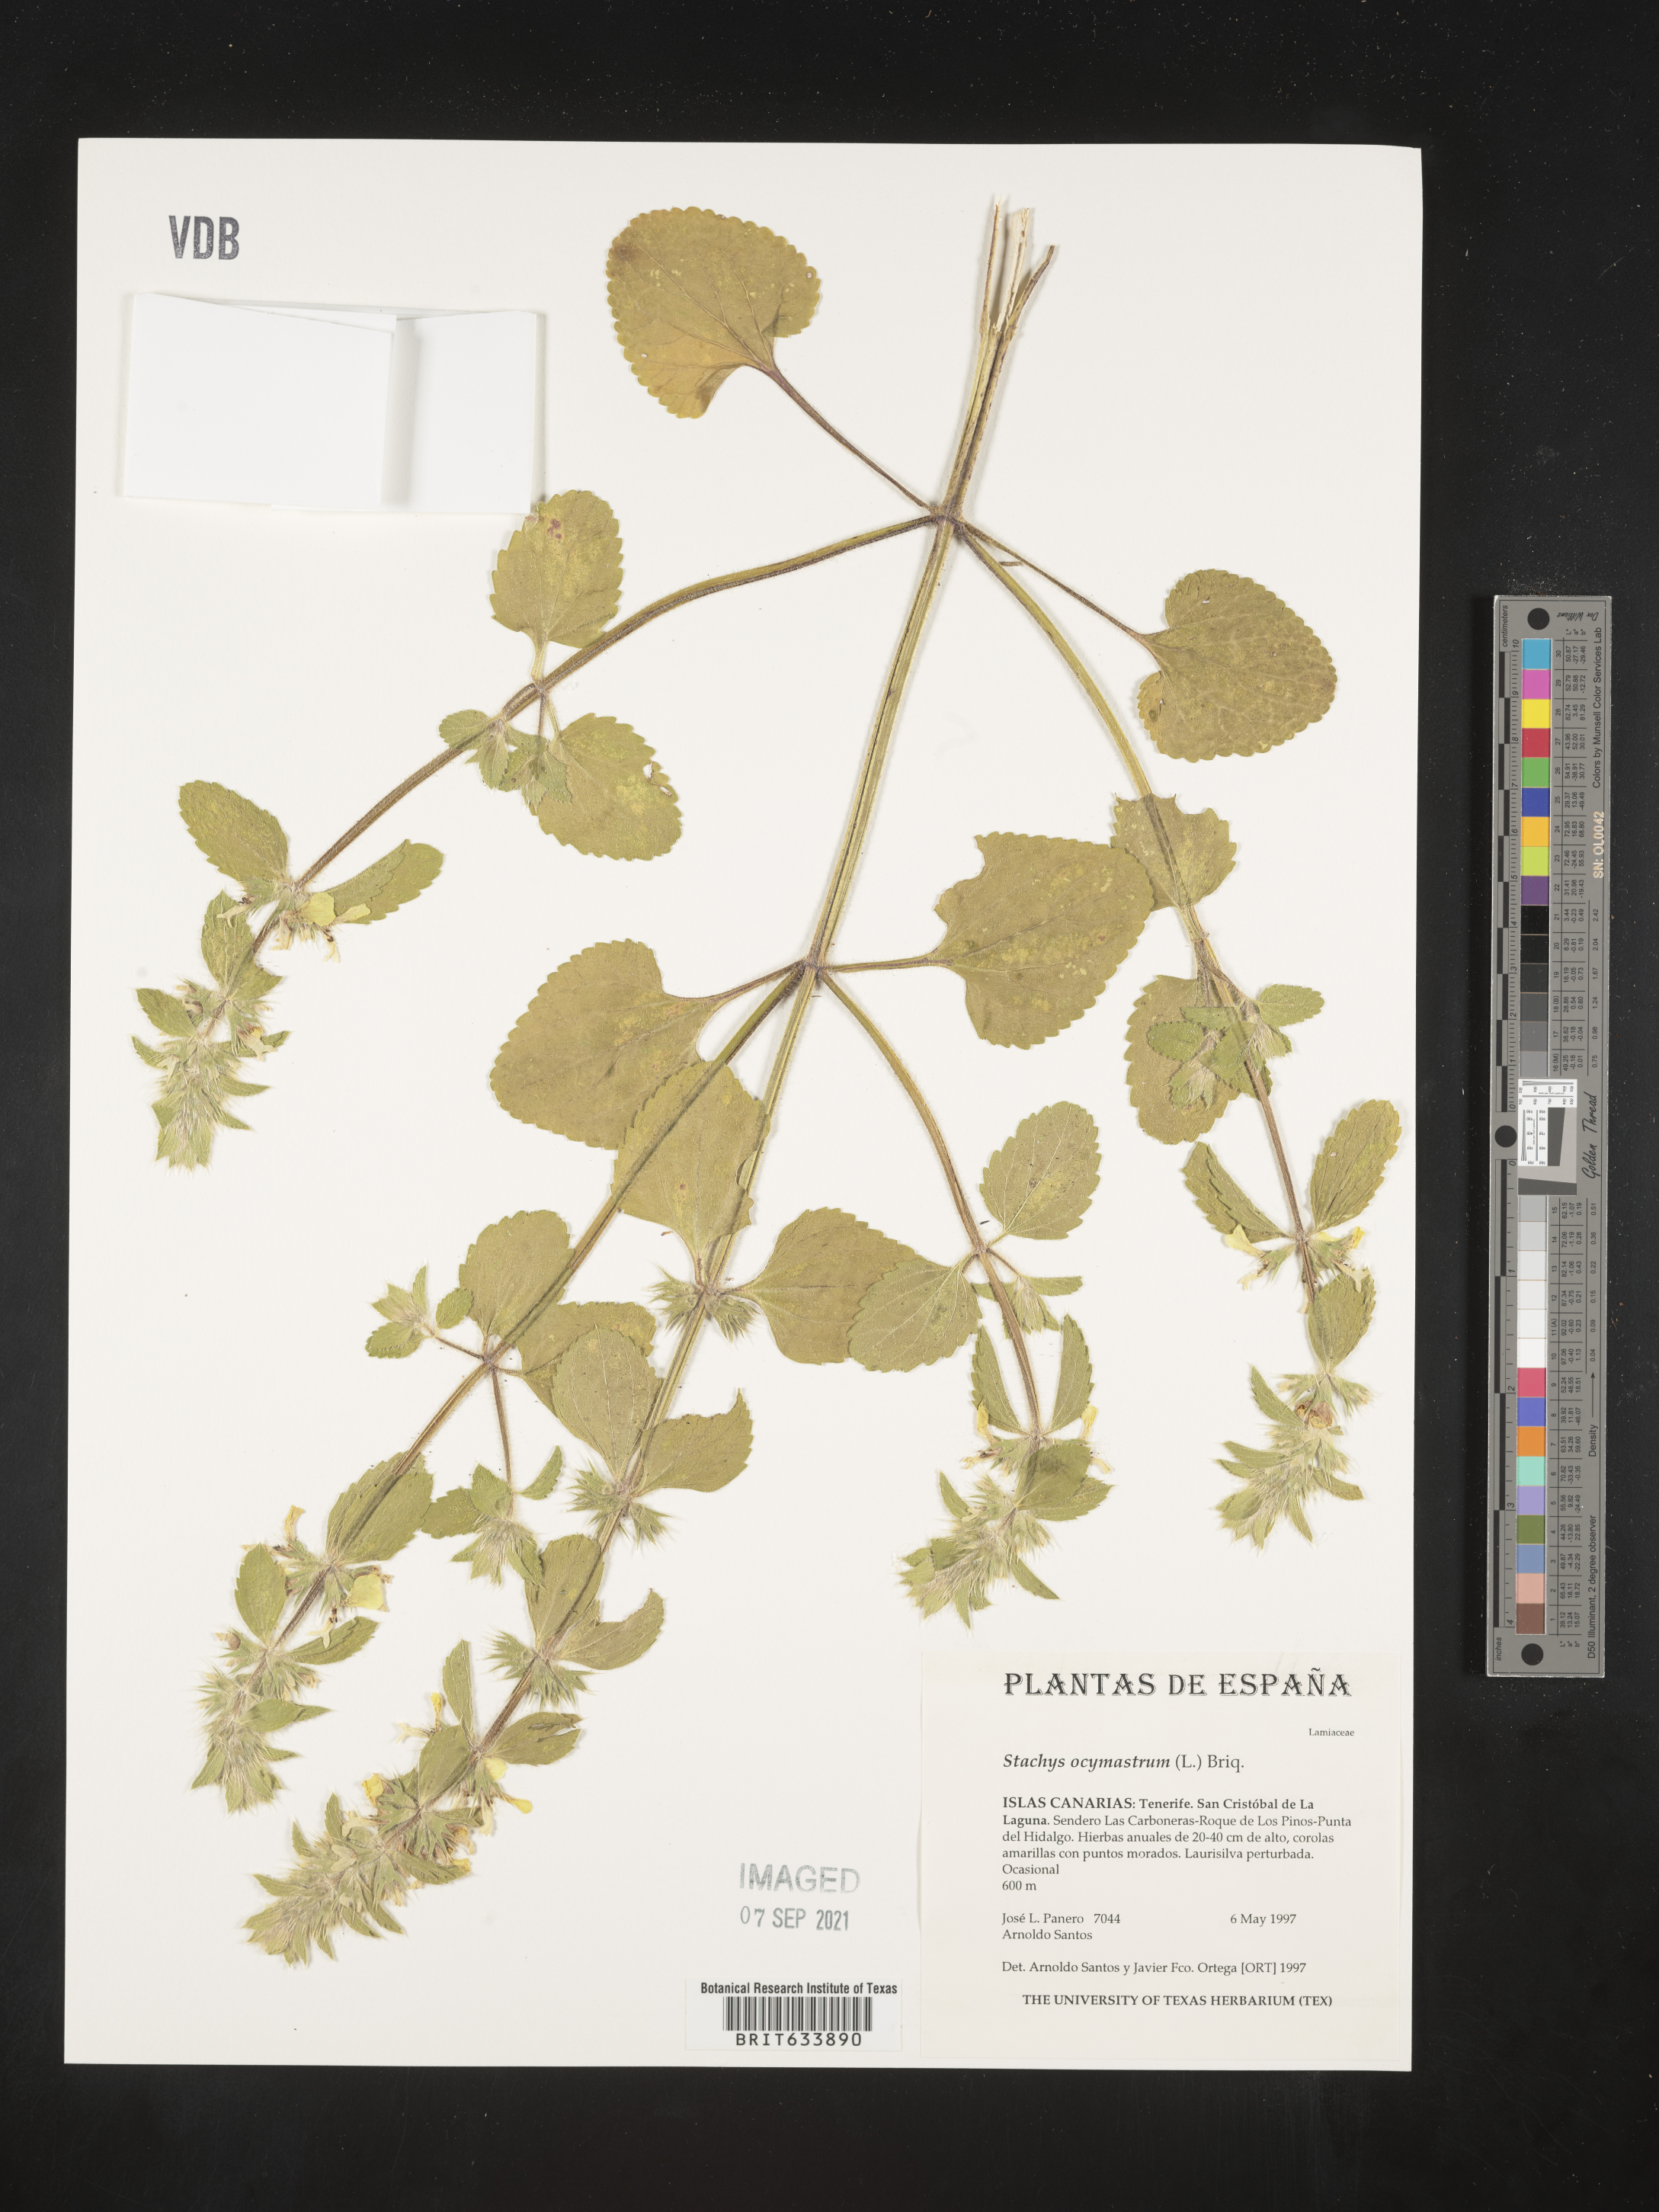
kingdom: Plantae
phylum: Tracheophyta
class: Magnoliopsida
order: Lamiales
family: Lamiaceae
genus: Stachys
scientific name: Stachys
